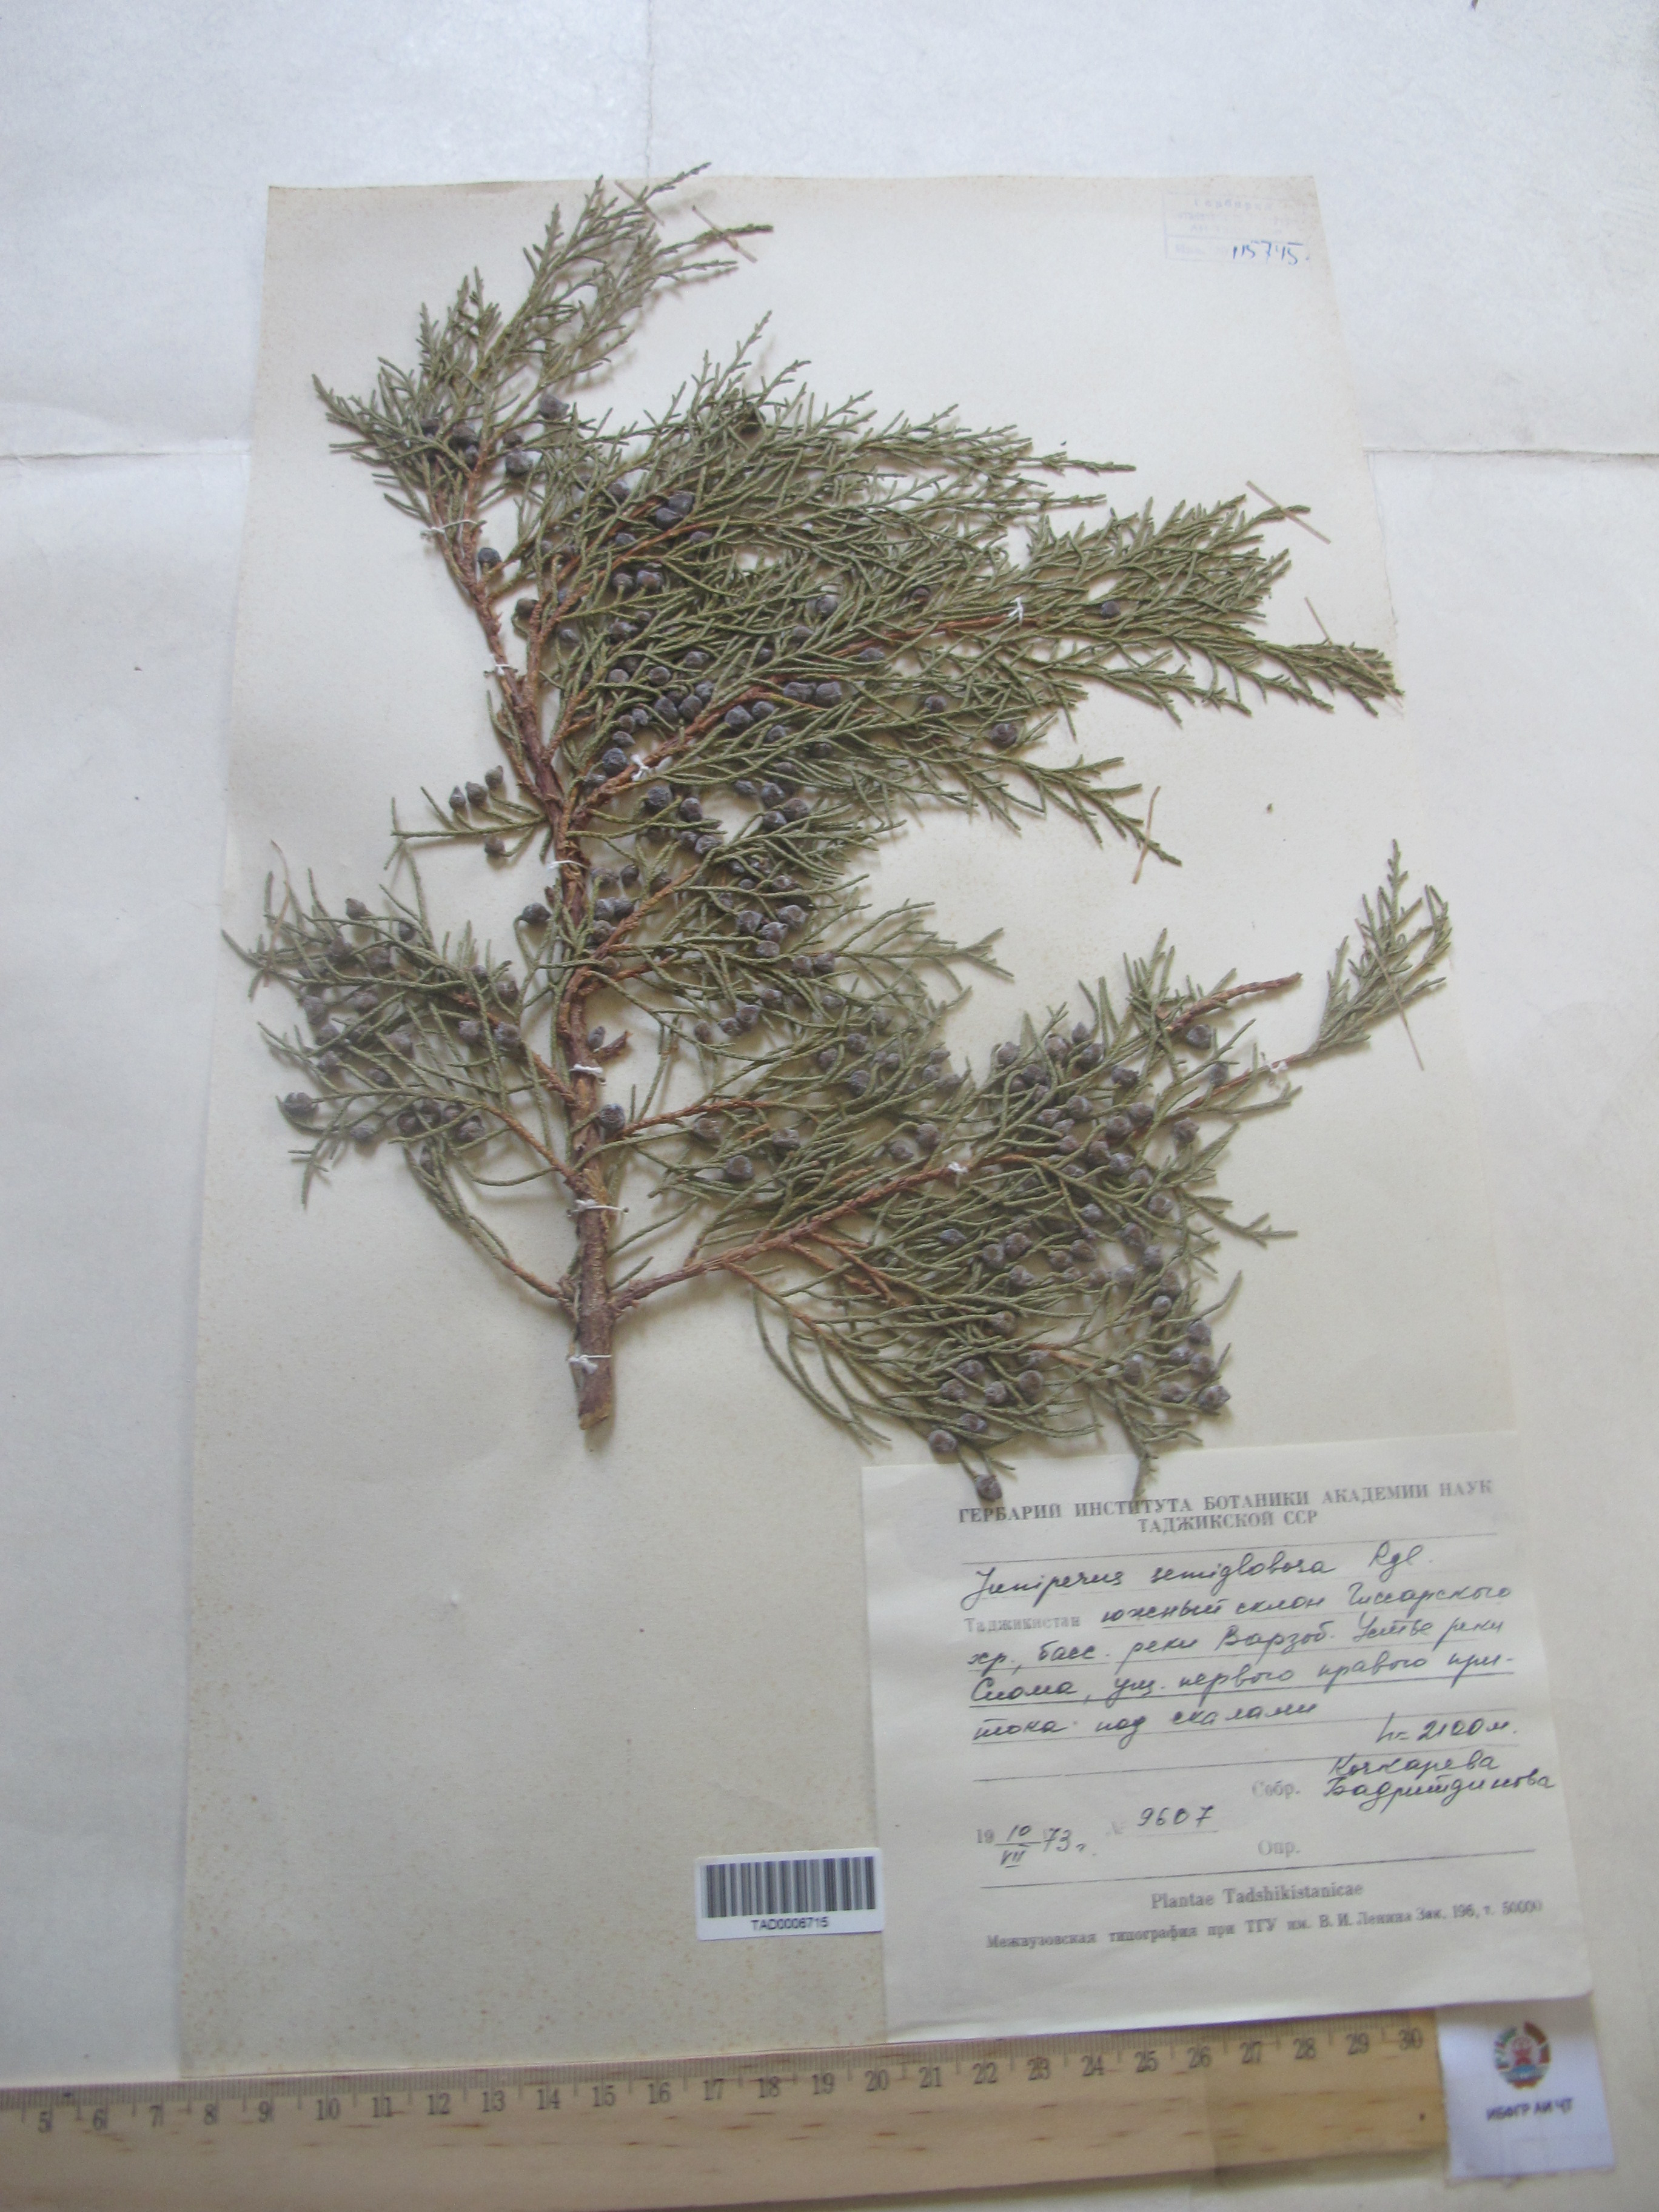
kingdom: Plantae
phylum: Tracheophyta
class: Pinopsida
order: Pinales
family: Cupressaceae
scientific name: Cupressaceae
